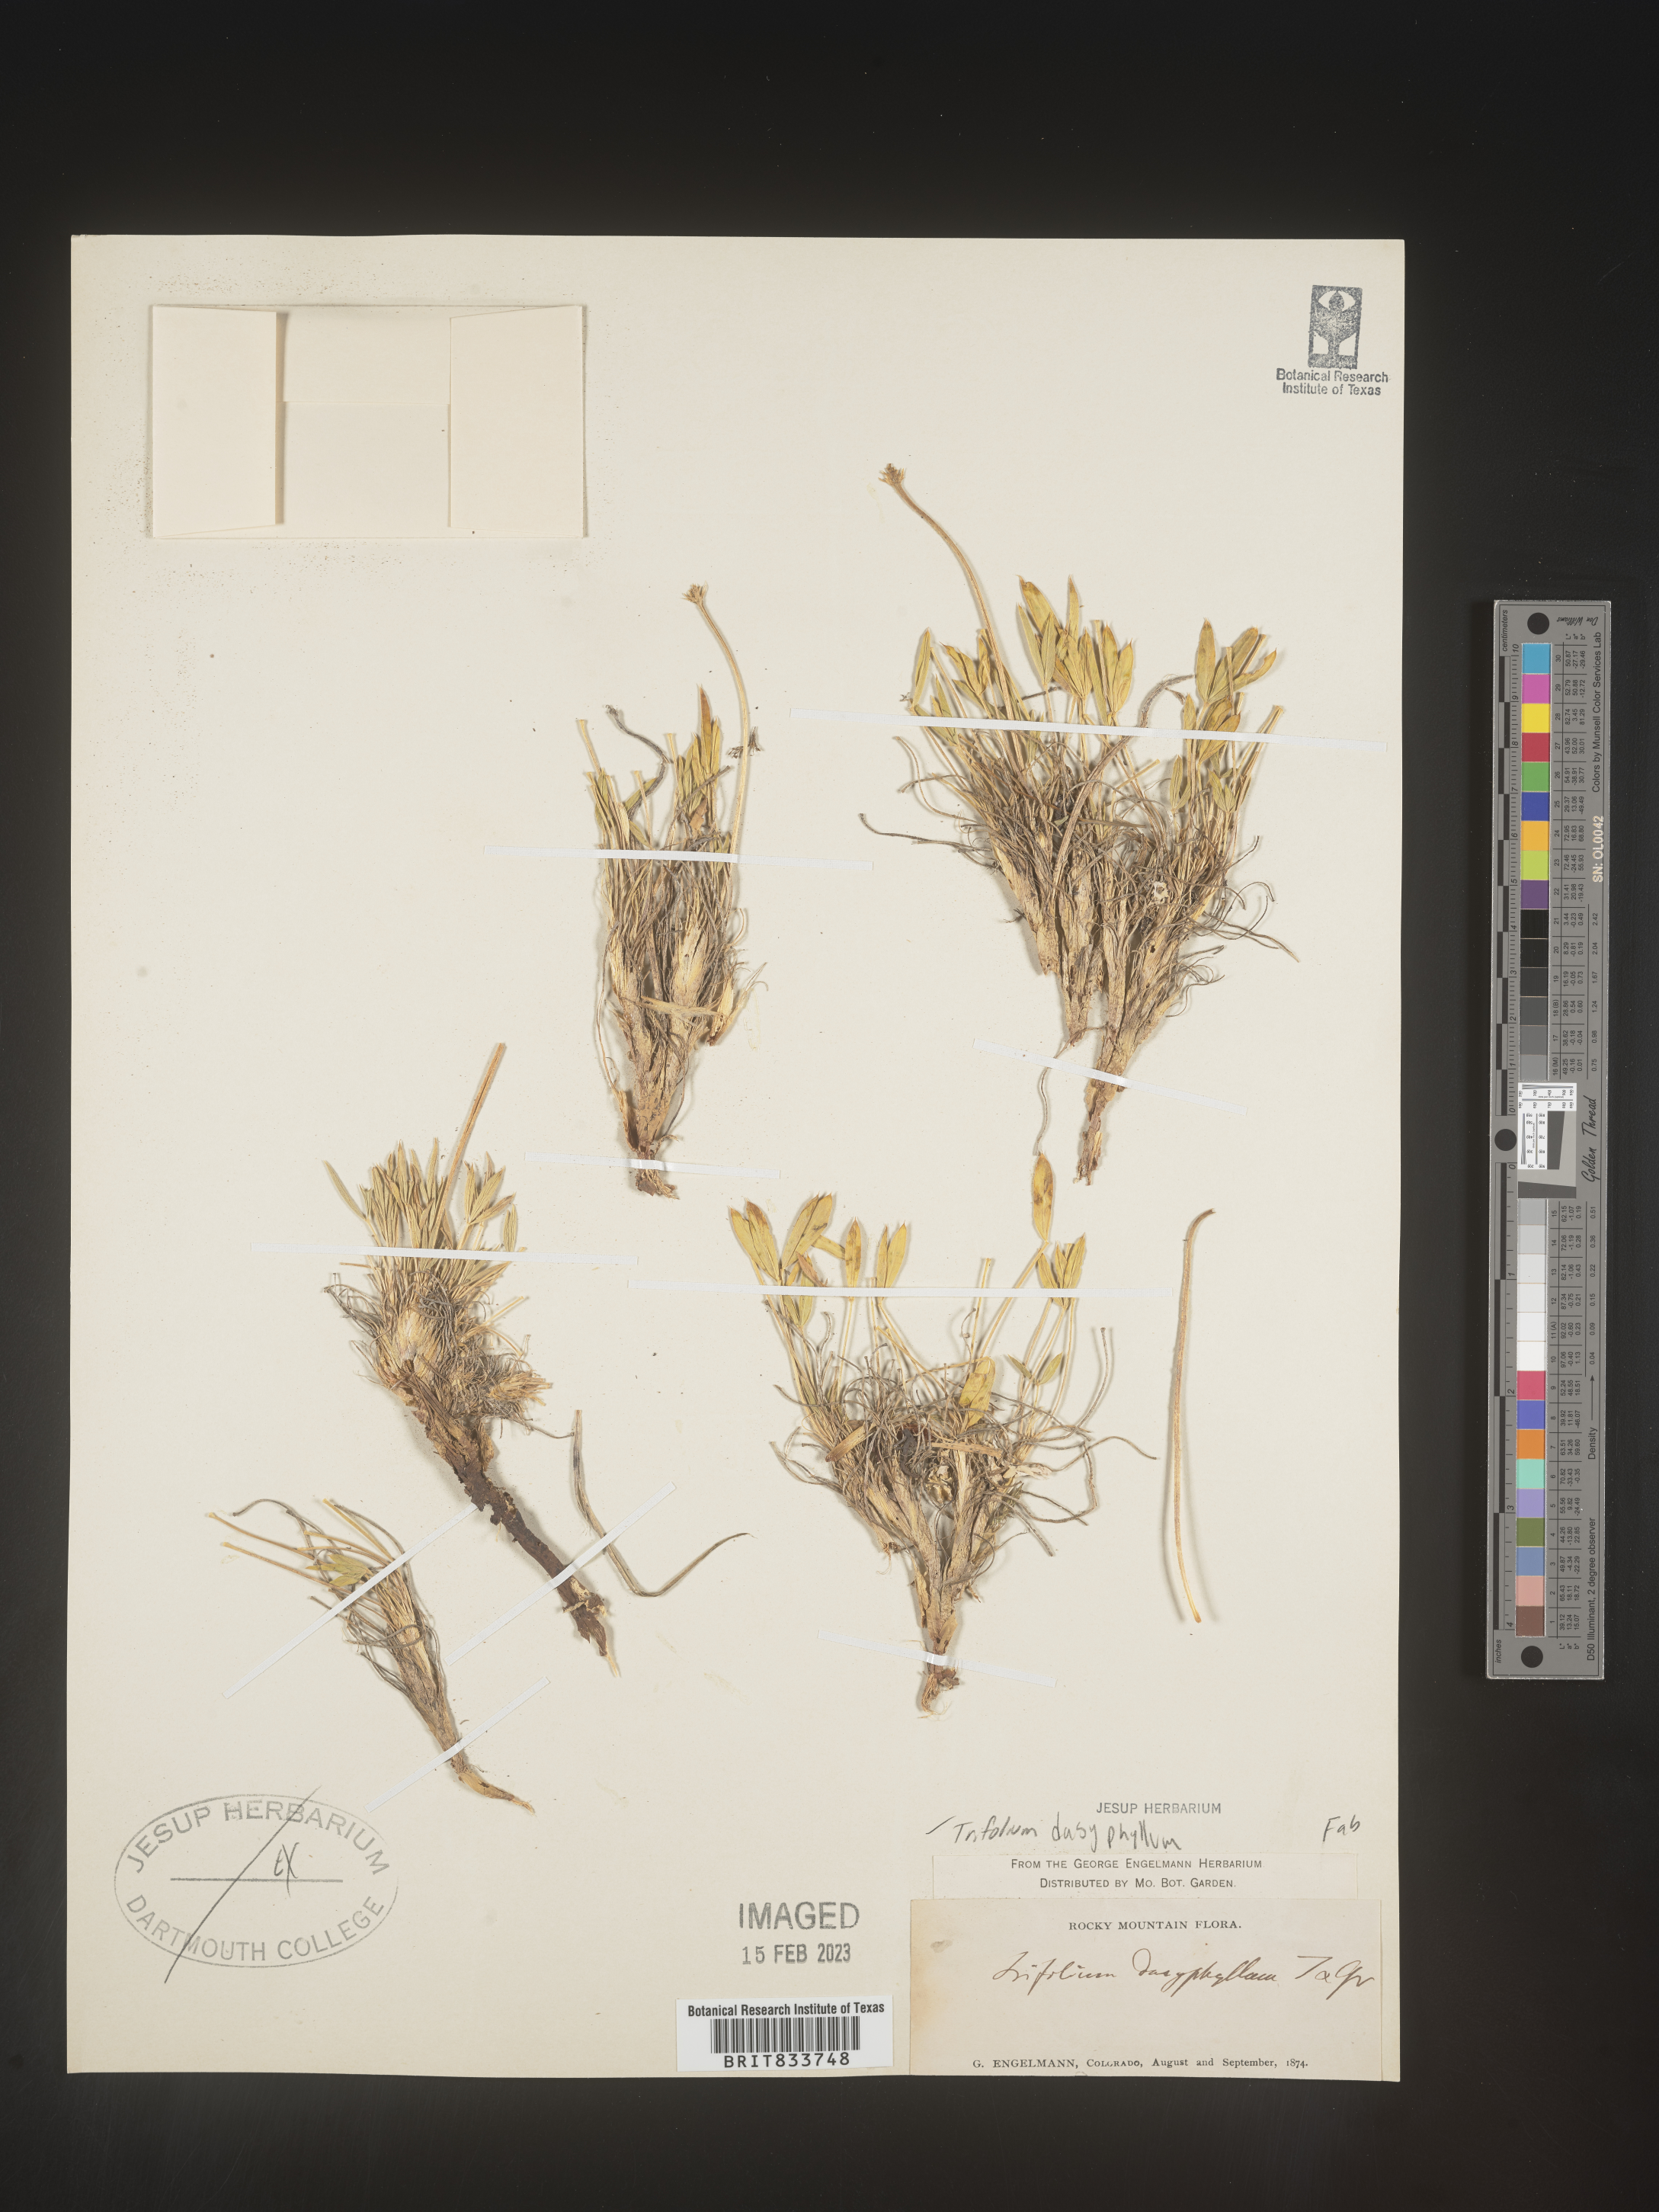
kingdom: Plantae
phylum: Tracheophyta
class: Magnoliopsida
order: Fabales
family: Fabaceae
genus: Trifolium
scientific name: Trifolium
